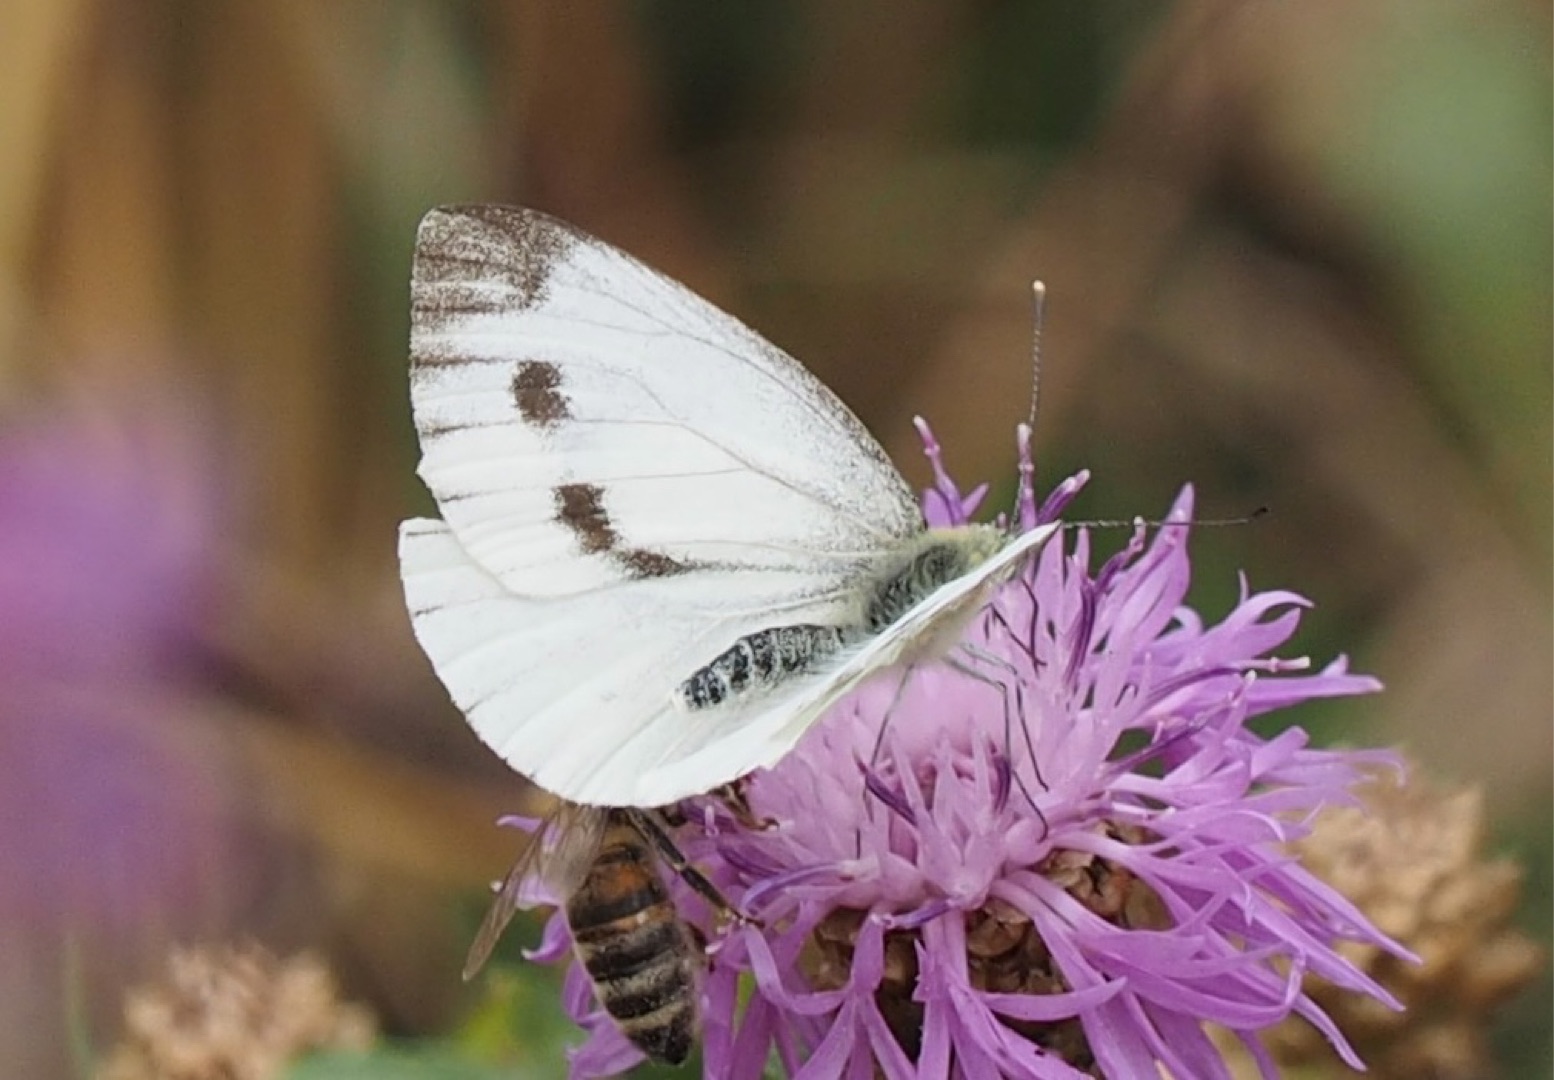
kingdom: Animalia
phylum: Arthropoda
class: Insecta
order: Lepidoptera
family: Pieridae
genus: Pieris
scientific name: Pieris napi
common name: Grønåret kålsommerfugl
